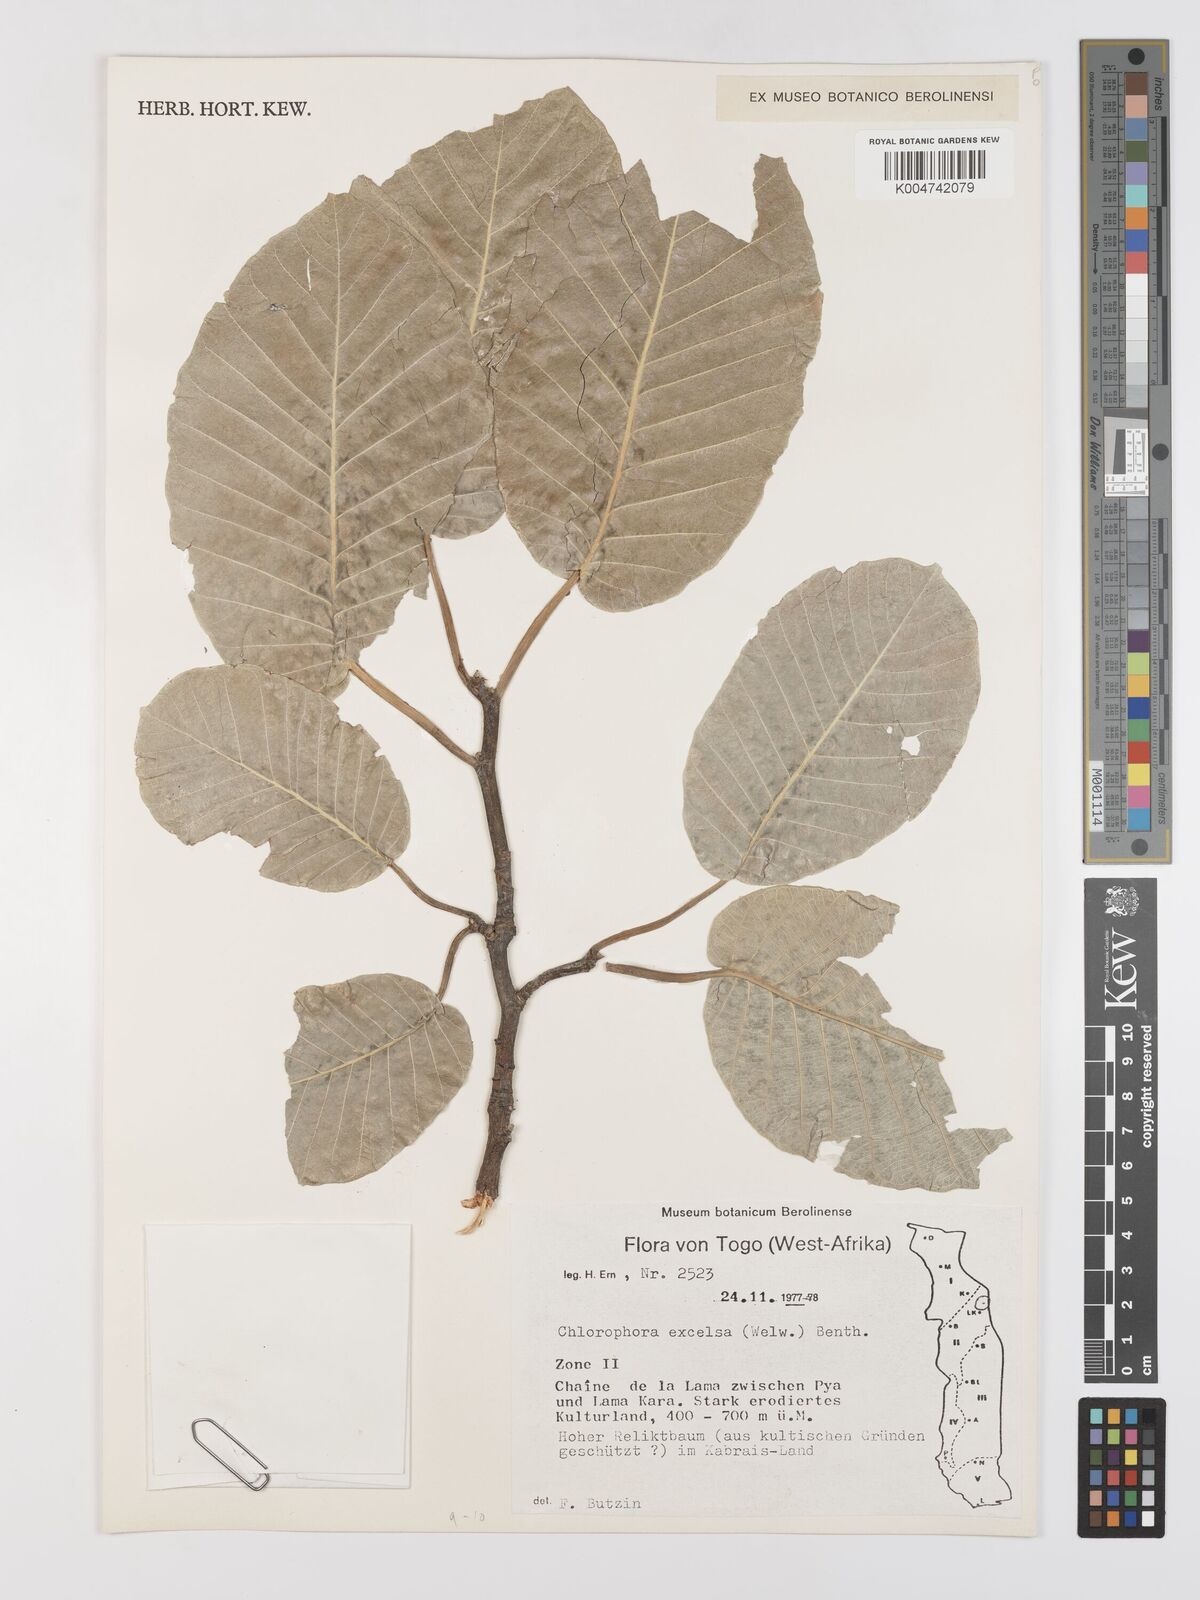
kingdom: Plantae
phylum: Tracheophyta
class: Magnoliopsida
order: Rosales
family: Moraceae
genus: Milicia
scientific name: Milicia excelsa
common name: African teak
